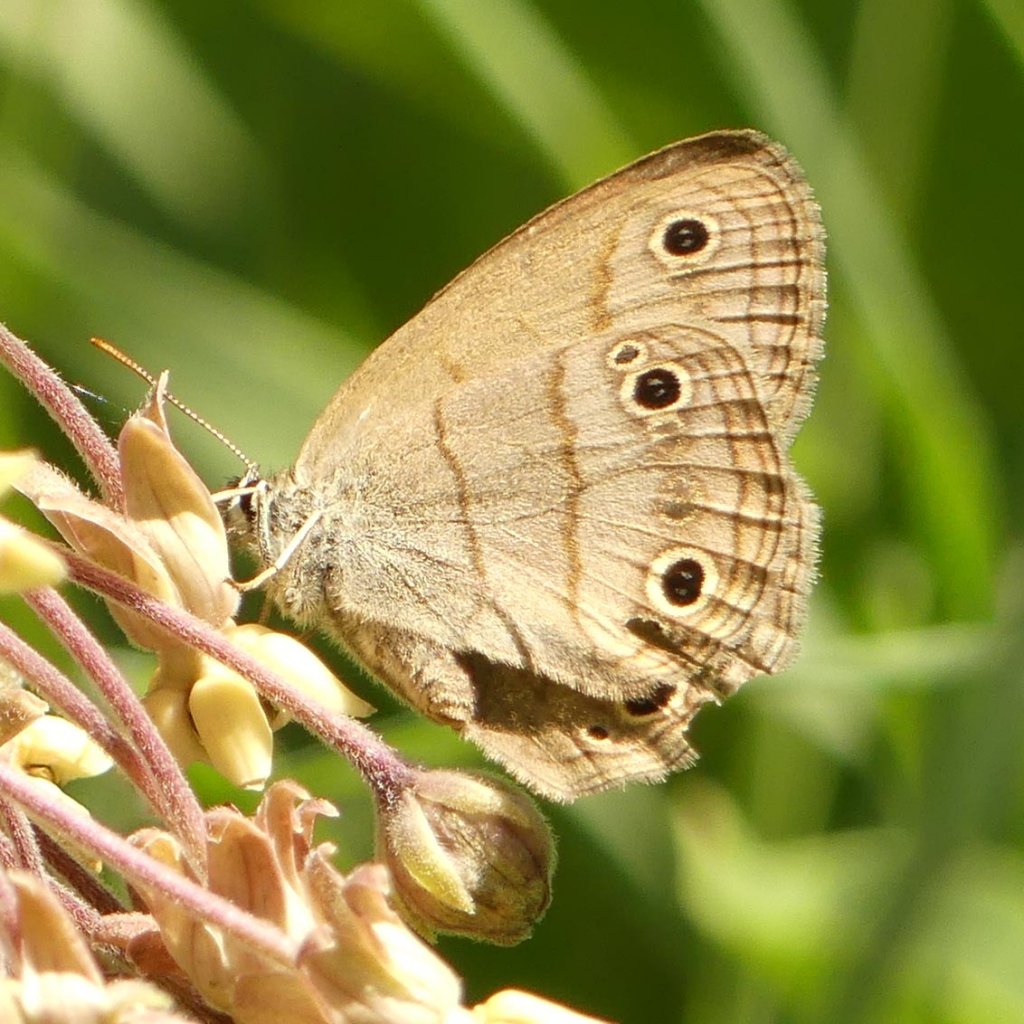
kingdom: Animalia
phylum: Arthropoda
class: Insecta
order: Lepidoptera
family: Nymphalidae
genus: Euptychia
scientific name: Euptychia cymela
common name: Little Wood Satyr
